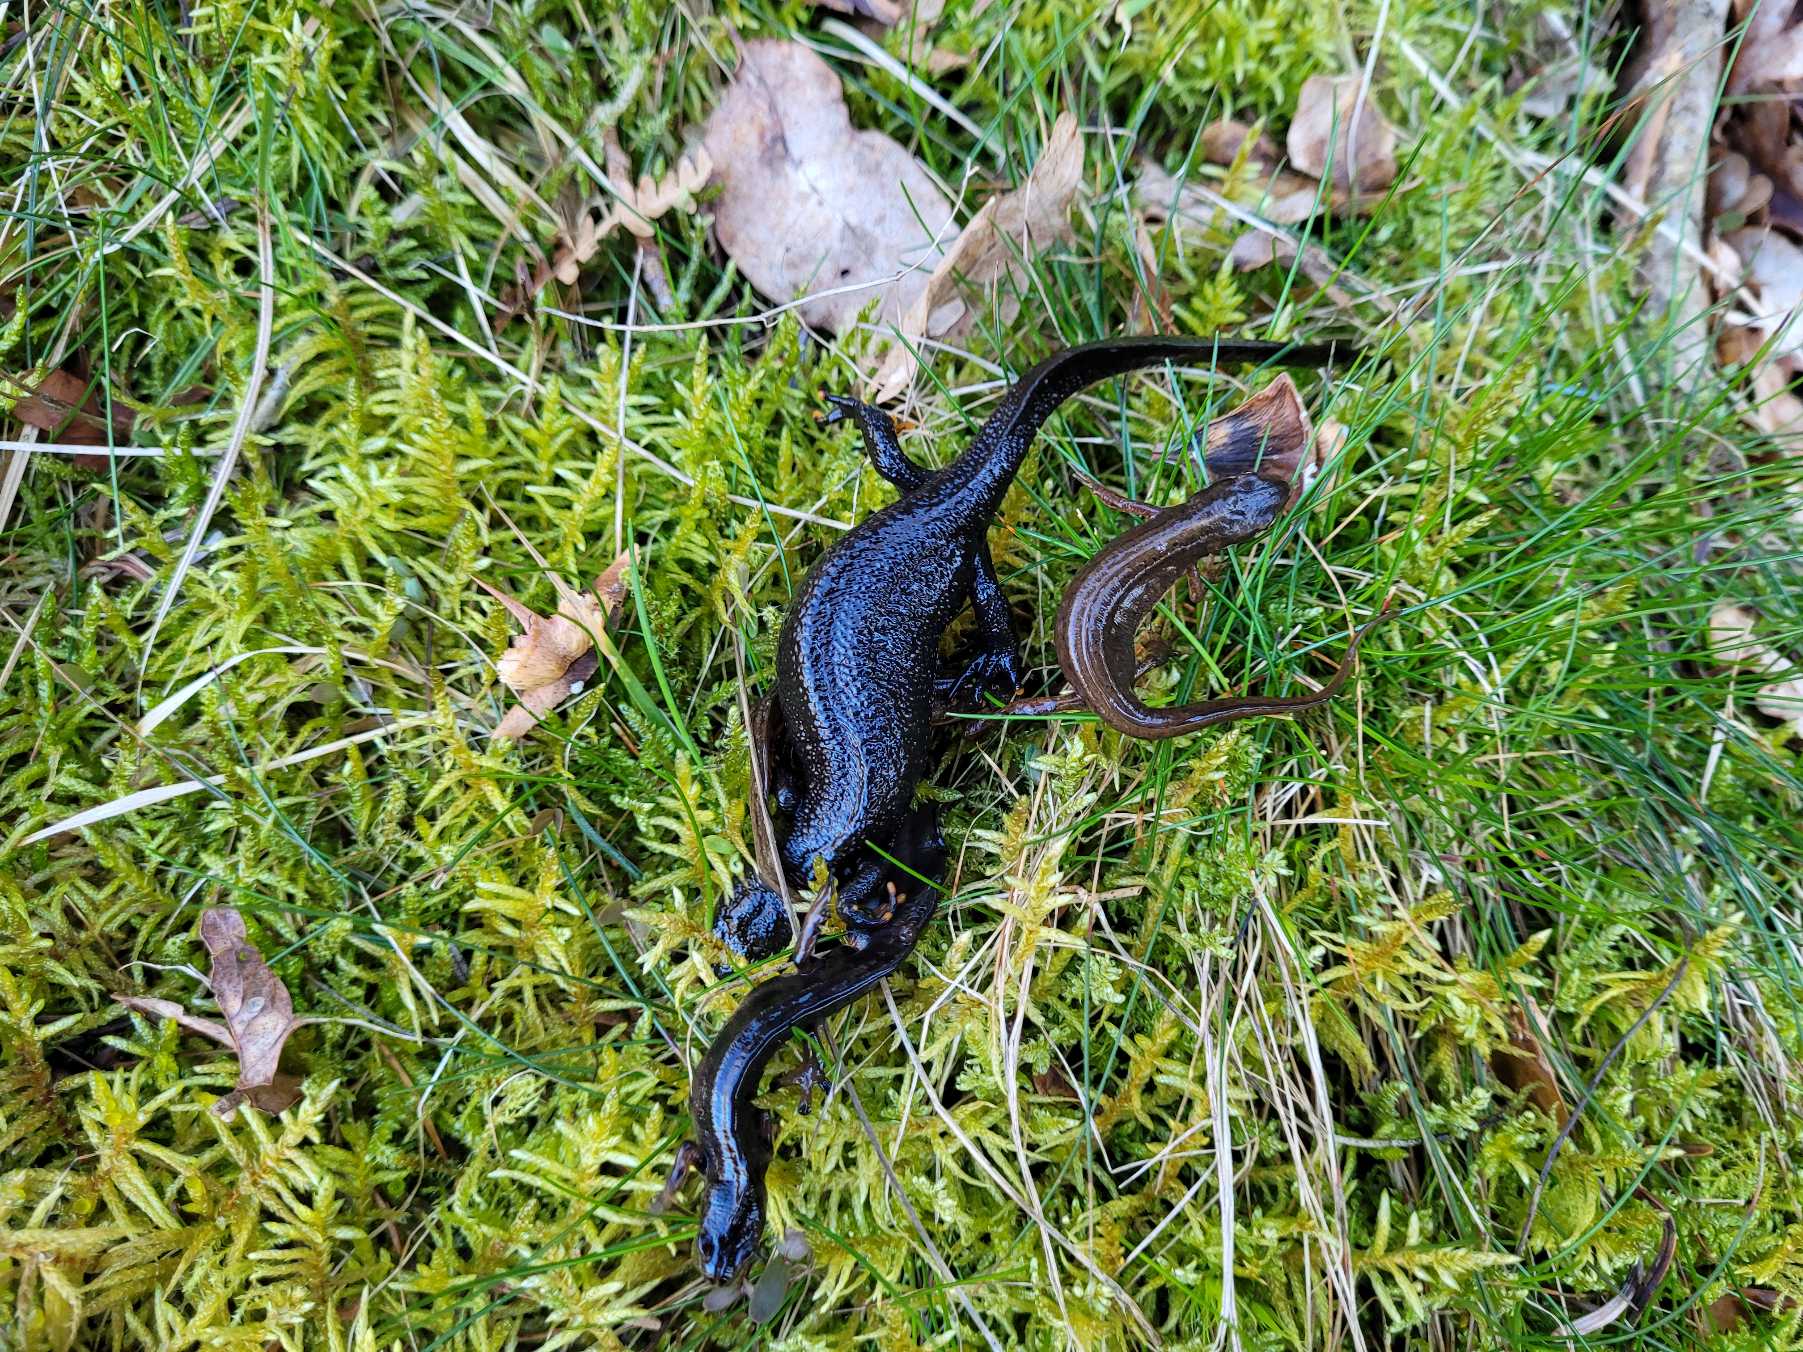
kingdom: Animalia
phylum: Chordata
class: Amphibia
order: Caudata
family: Salamandridae
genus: Triturus
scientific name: Triturus cristatus
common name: Stor vandsalamander
